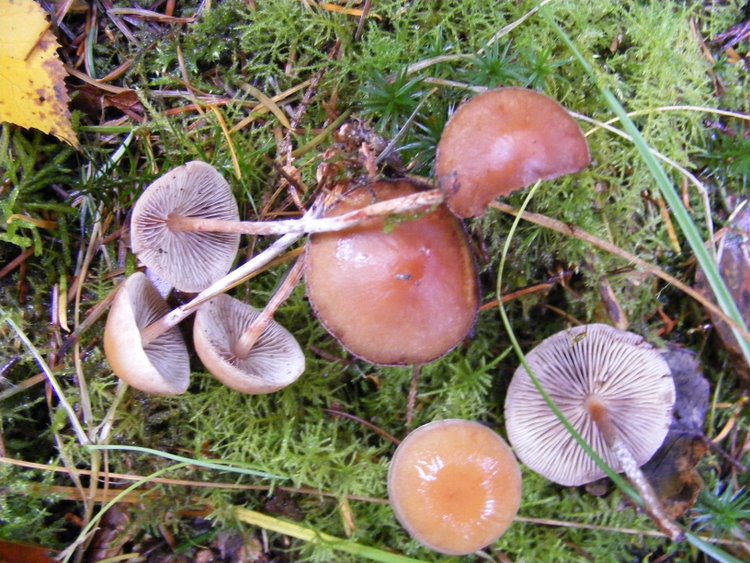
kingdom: Fungi
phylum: Basidiomycota
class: Agaricomycetes
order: Agaricales
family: Strophariaceae
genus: Hypholoma
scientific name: Hypholoma marginatum
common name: enlig svovlhat
